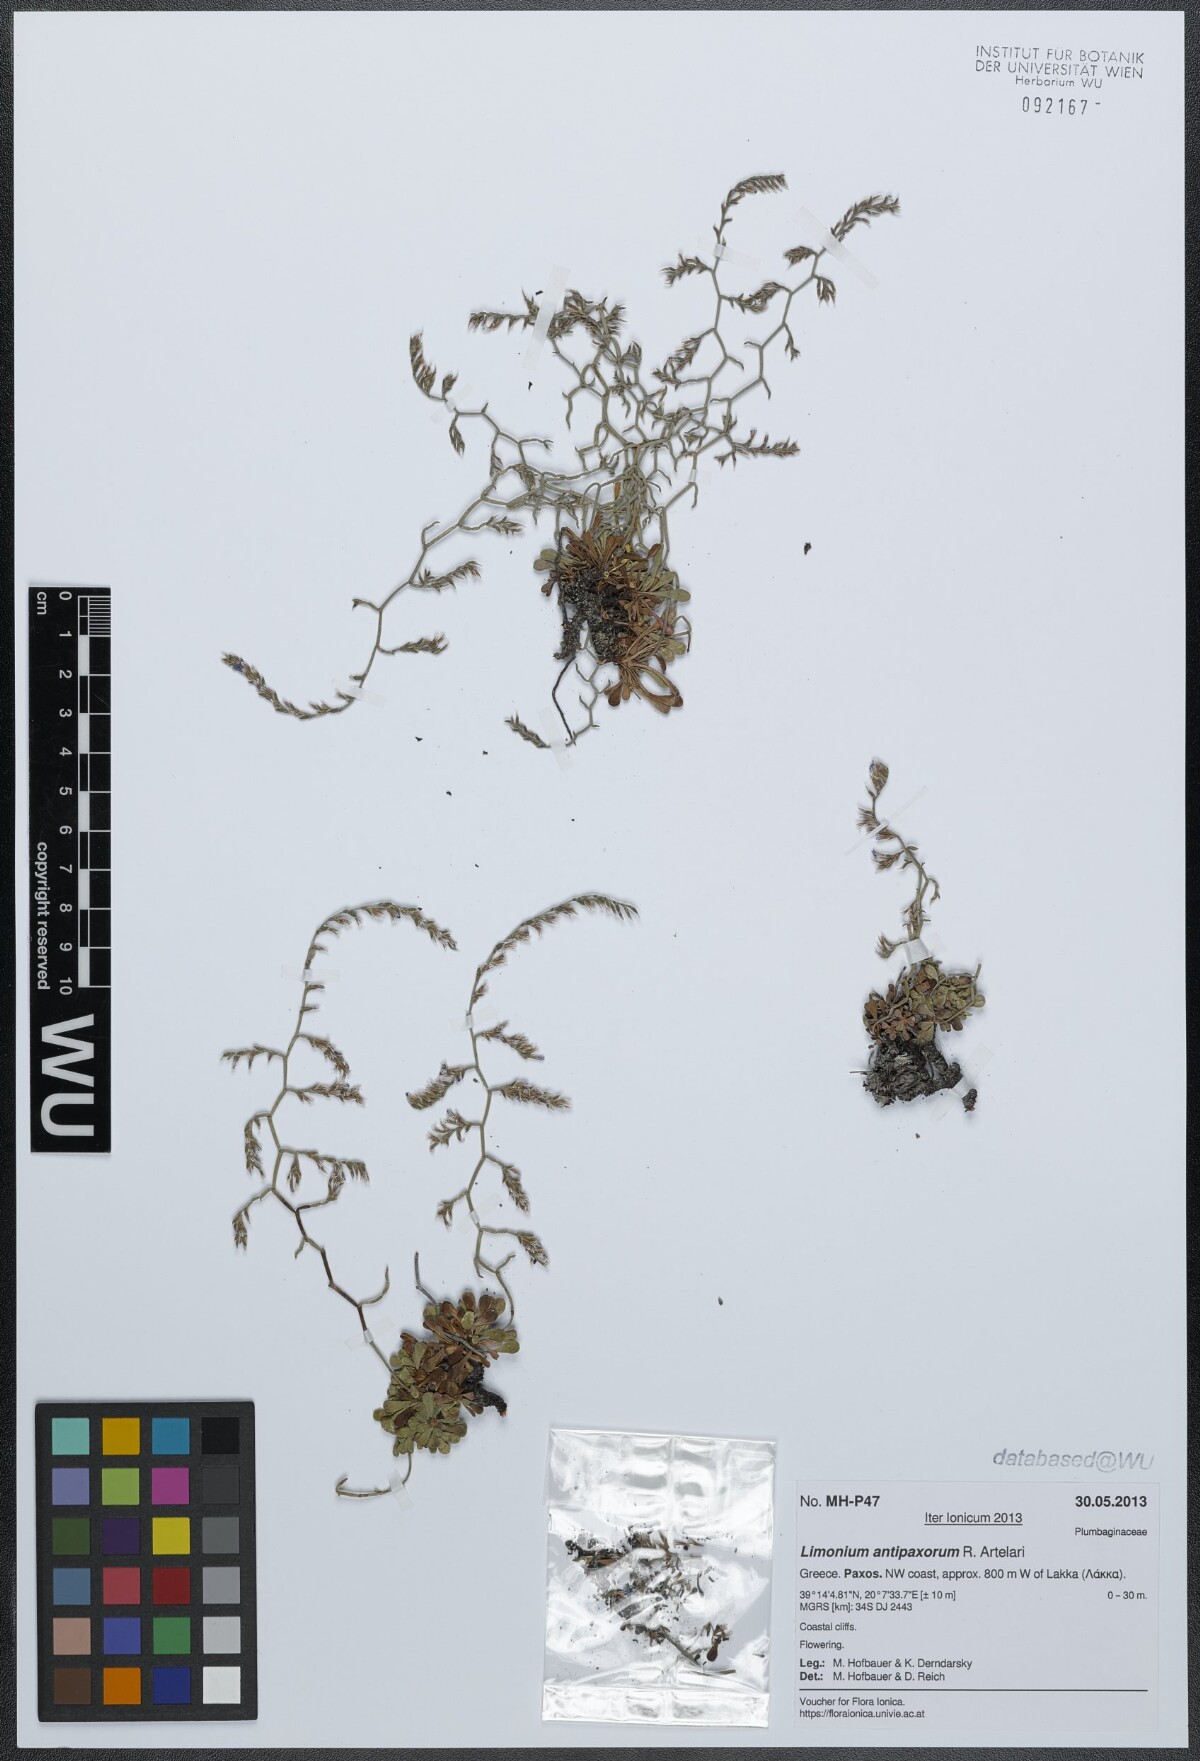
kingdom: Plantae
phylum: Tracheophyta
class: Magnoliopsida
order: Caryophyllales
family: Plumbaginaceae
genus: Limonium
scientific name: Limonium antipaxorum
